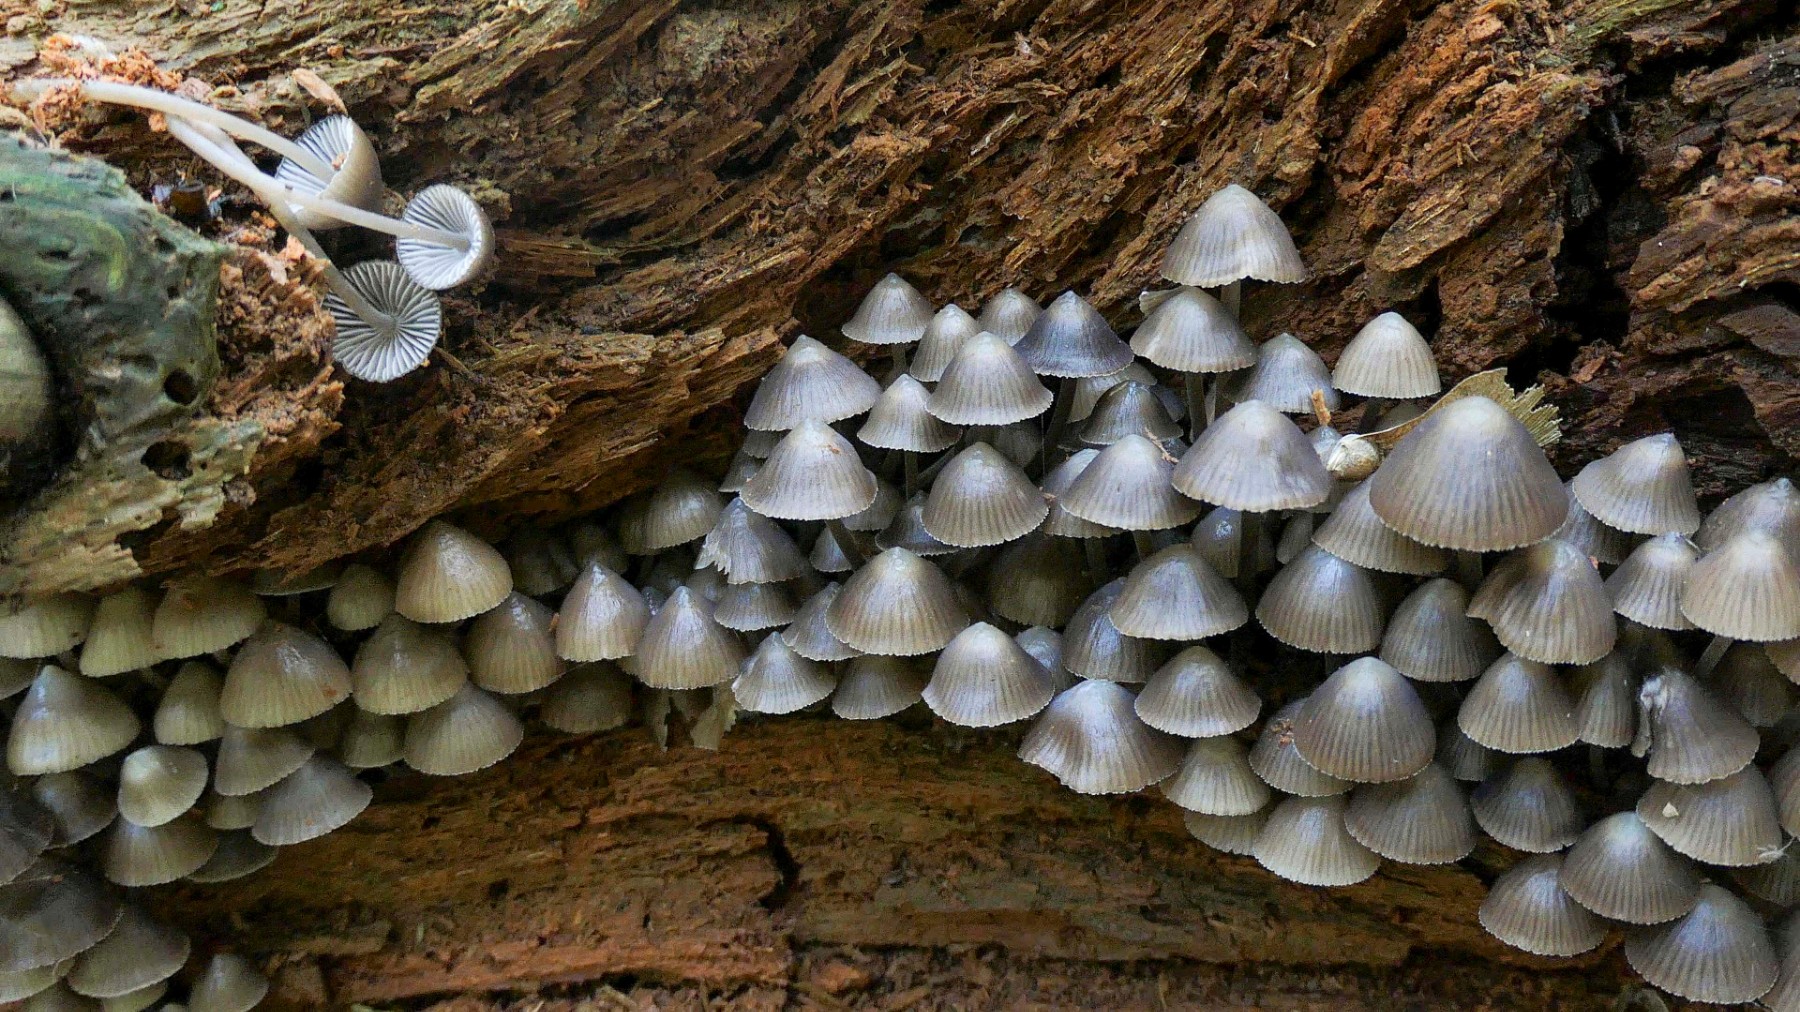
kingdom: Fungi
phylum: Basidiomycota
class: Agaricomycetes
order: Agaricales
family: Mycenaceae
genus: Mycena
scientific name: Mycena stipata
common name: stinkende huesvamp
